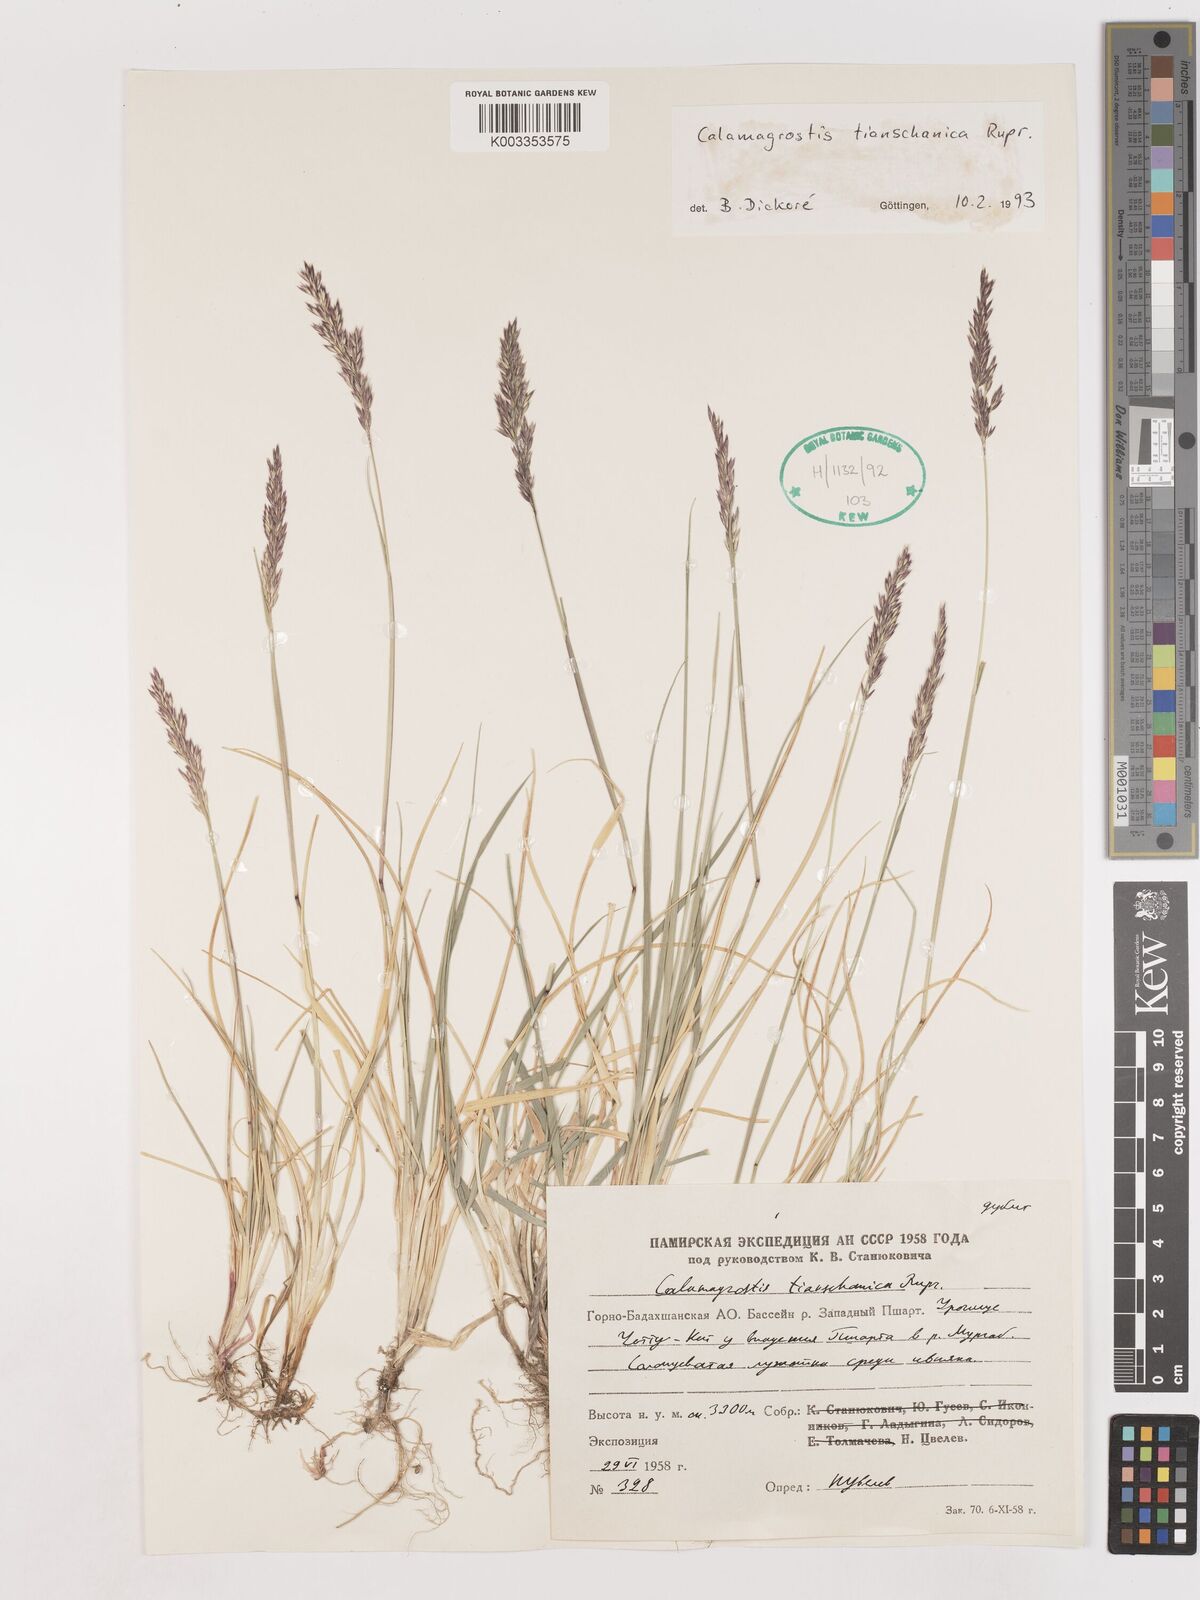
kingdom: Plantae
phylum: Tracheophyta
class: Liliopsida
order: Poales
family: Poaceae
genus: Calamagrostis
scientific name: Calamagrostis tianschanica
